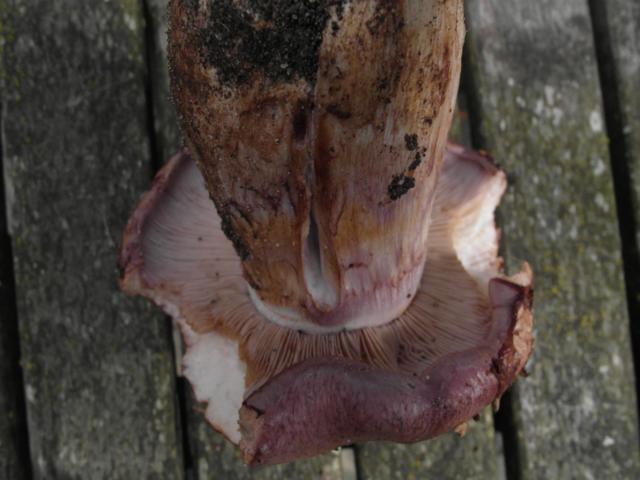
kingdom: Fungi
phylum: Basidiomycota
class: Agaricomycetes
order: Agaricales
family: Cortinariaceae
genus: Phlegmacium
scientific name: Phlegmacium balteatocumatile
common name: violettrådet slørhat
